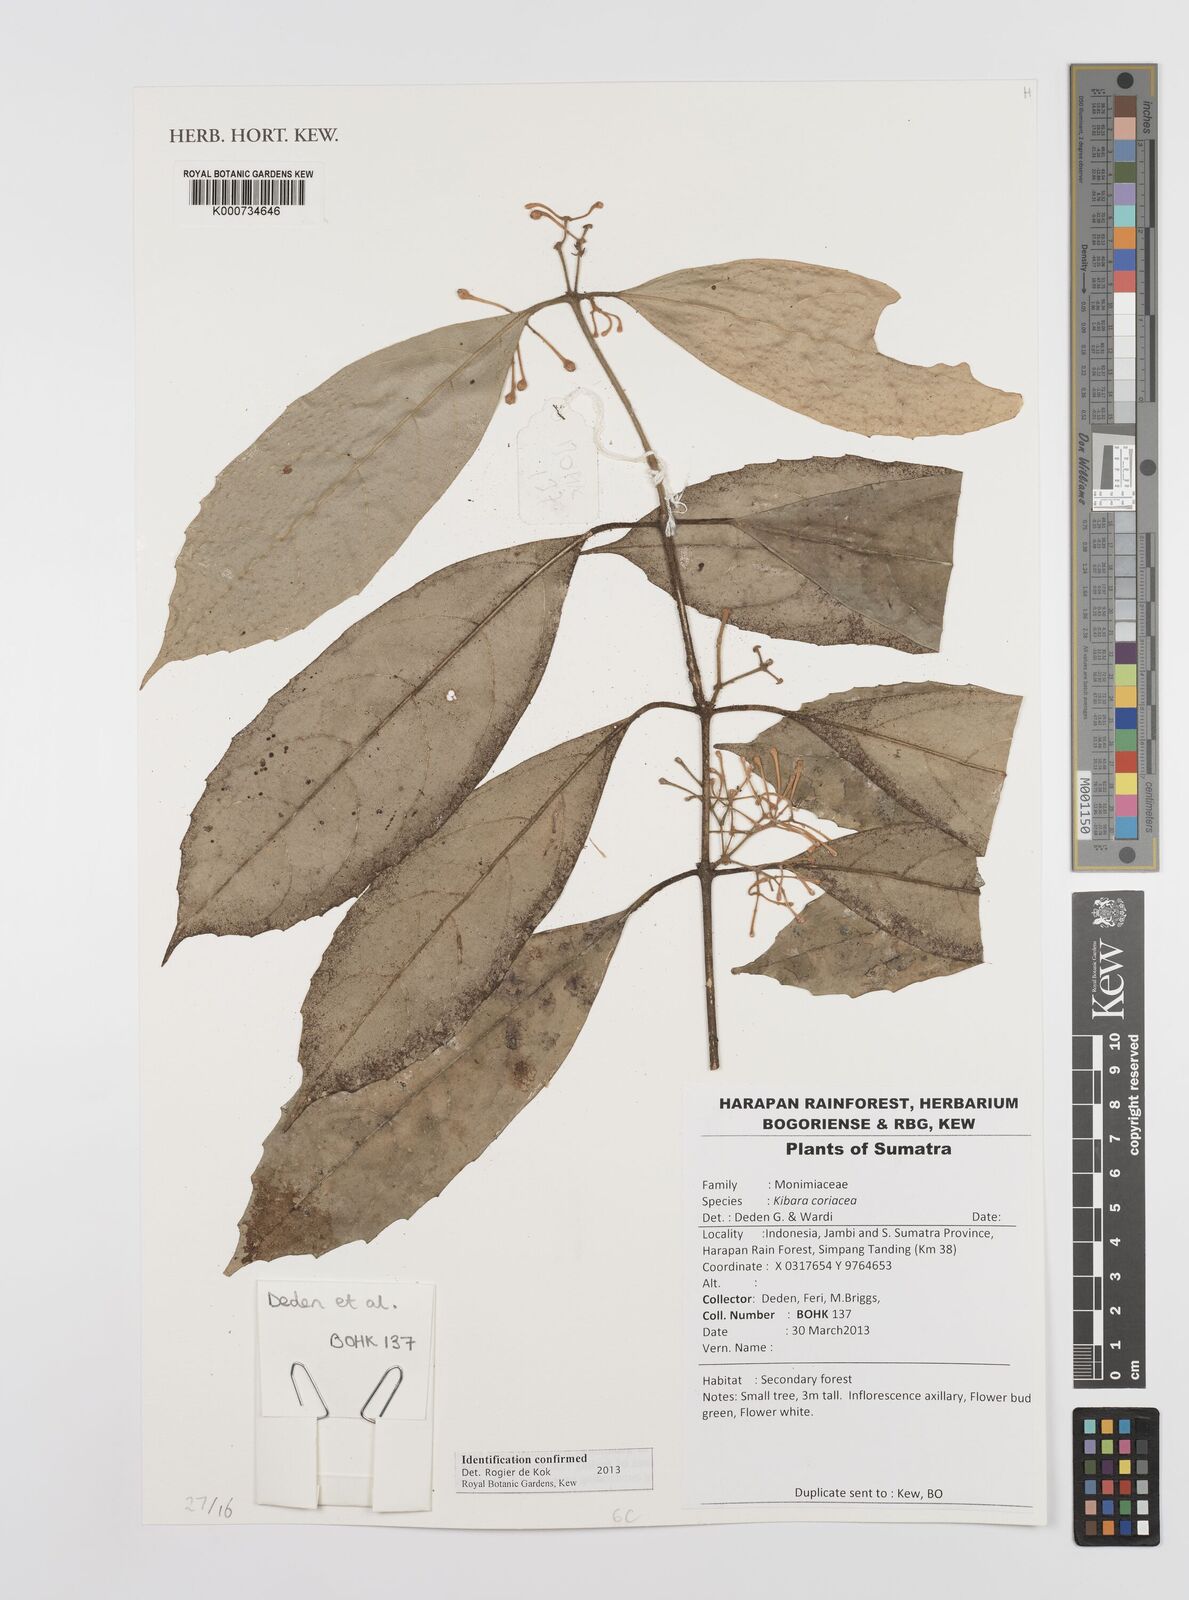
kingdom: Plantae
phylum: Tracheophyta
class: Magnoliopsida
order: Laurales
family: Monimiaceae
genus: Kibara
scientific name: Kibara
